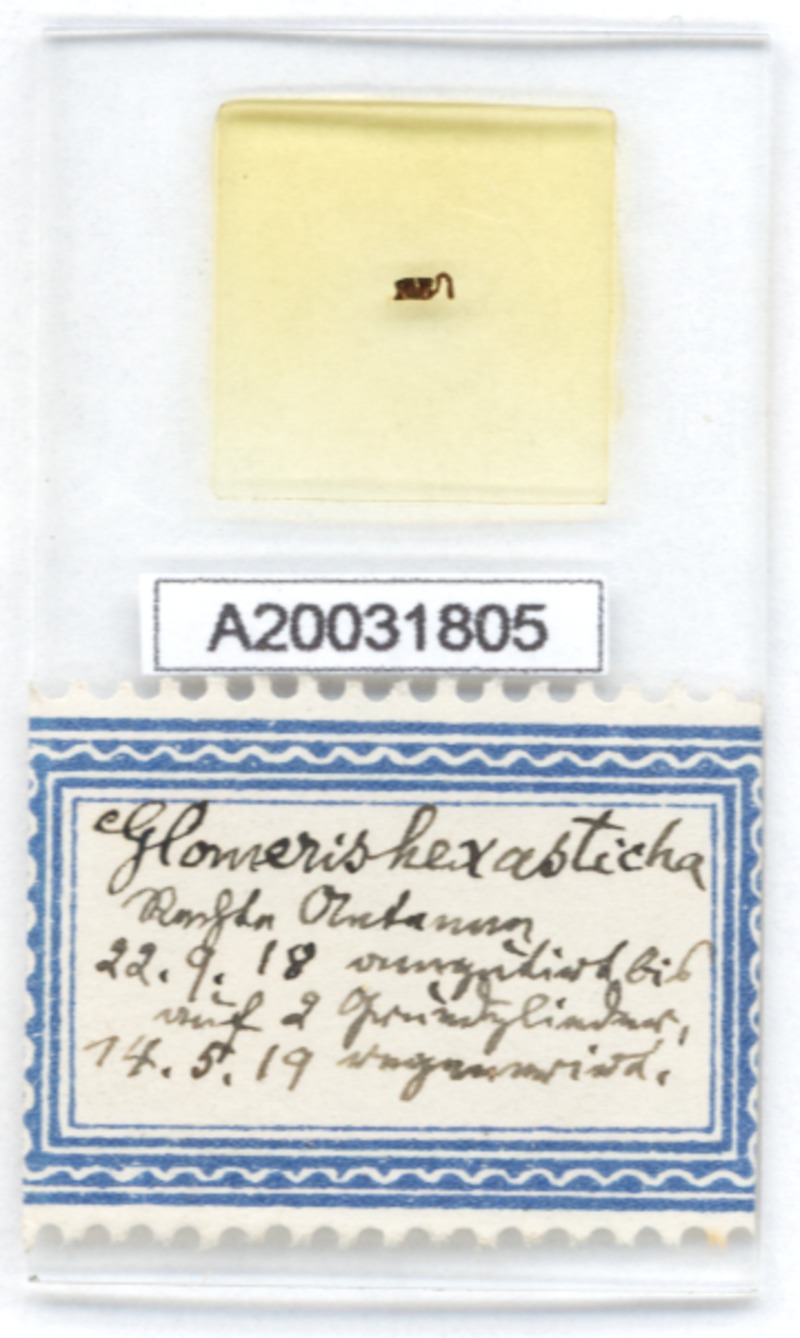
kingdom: Animalia
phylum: Arthropoda
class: Diplopoda
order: Glomerida
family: Glomeridae
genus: Glomeris
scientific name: Glomeris hexasticha
